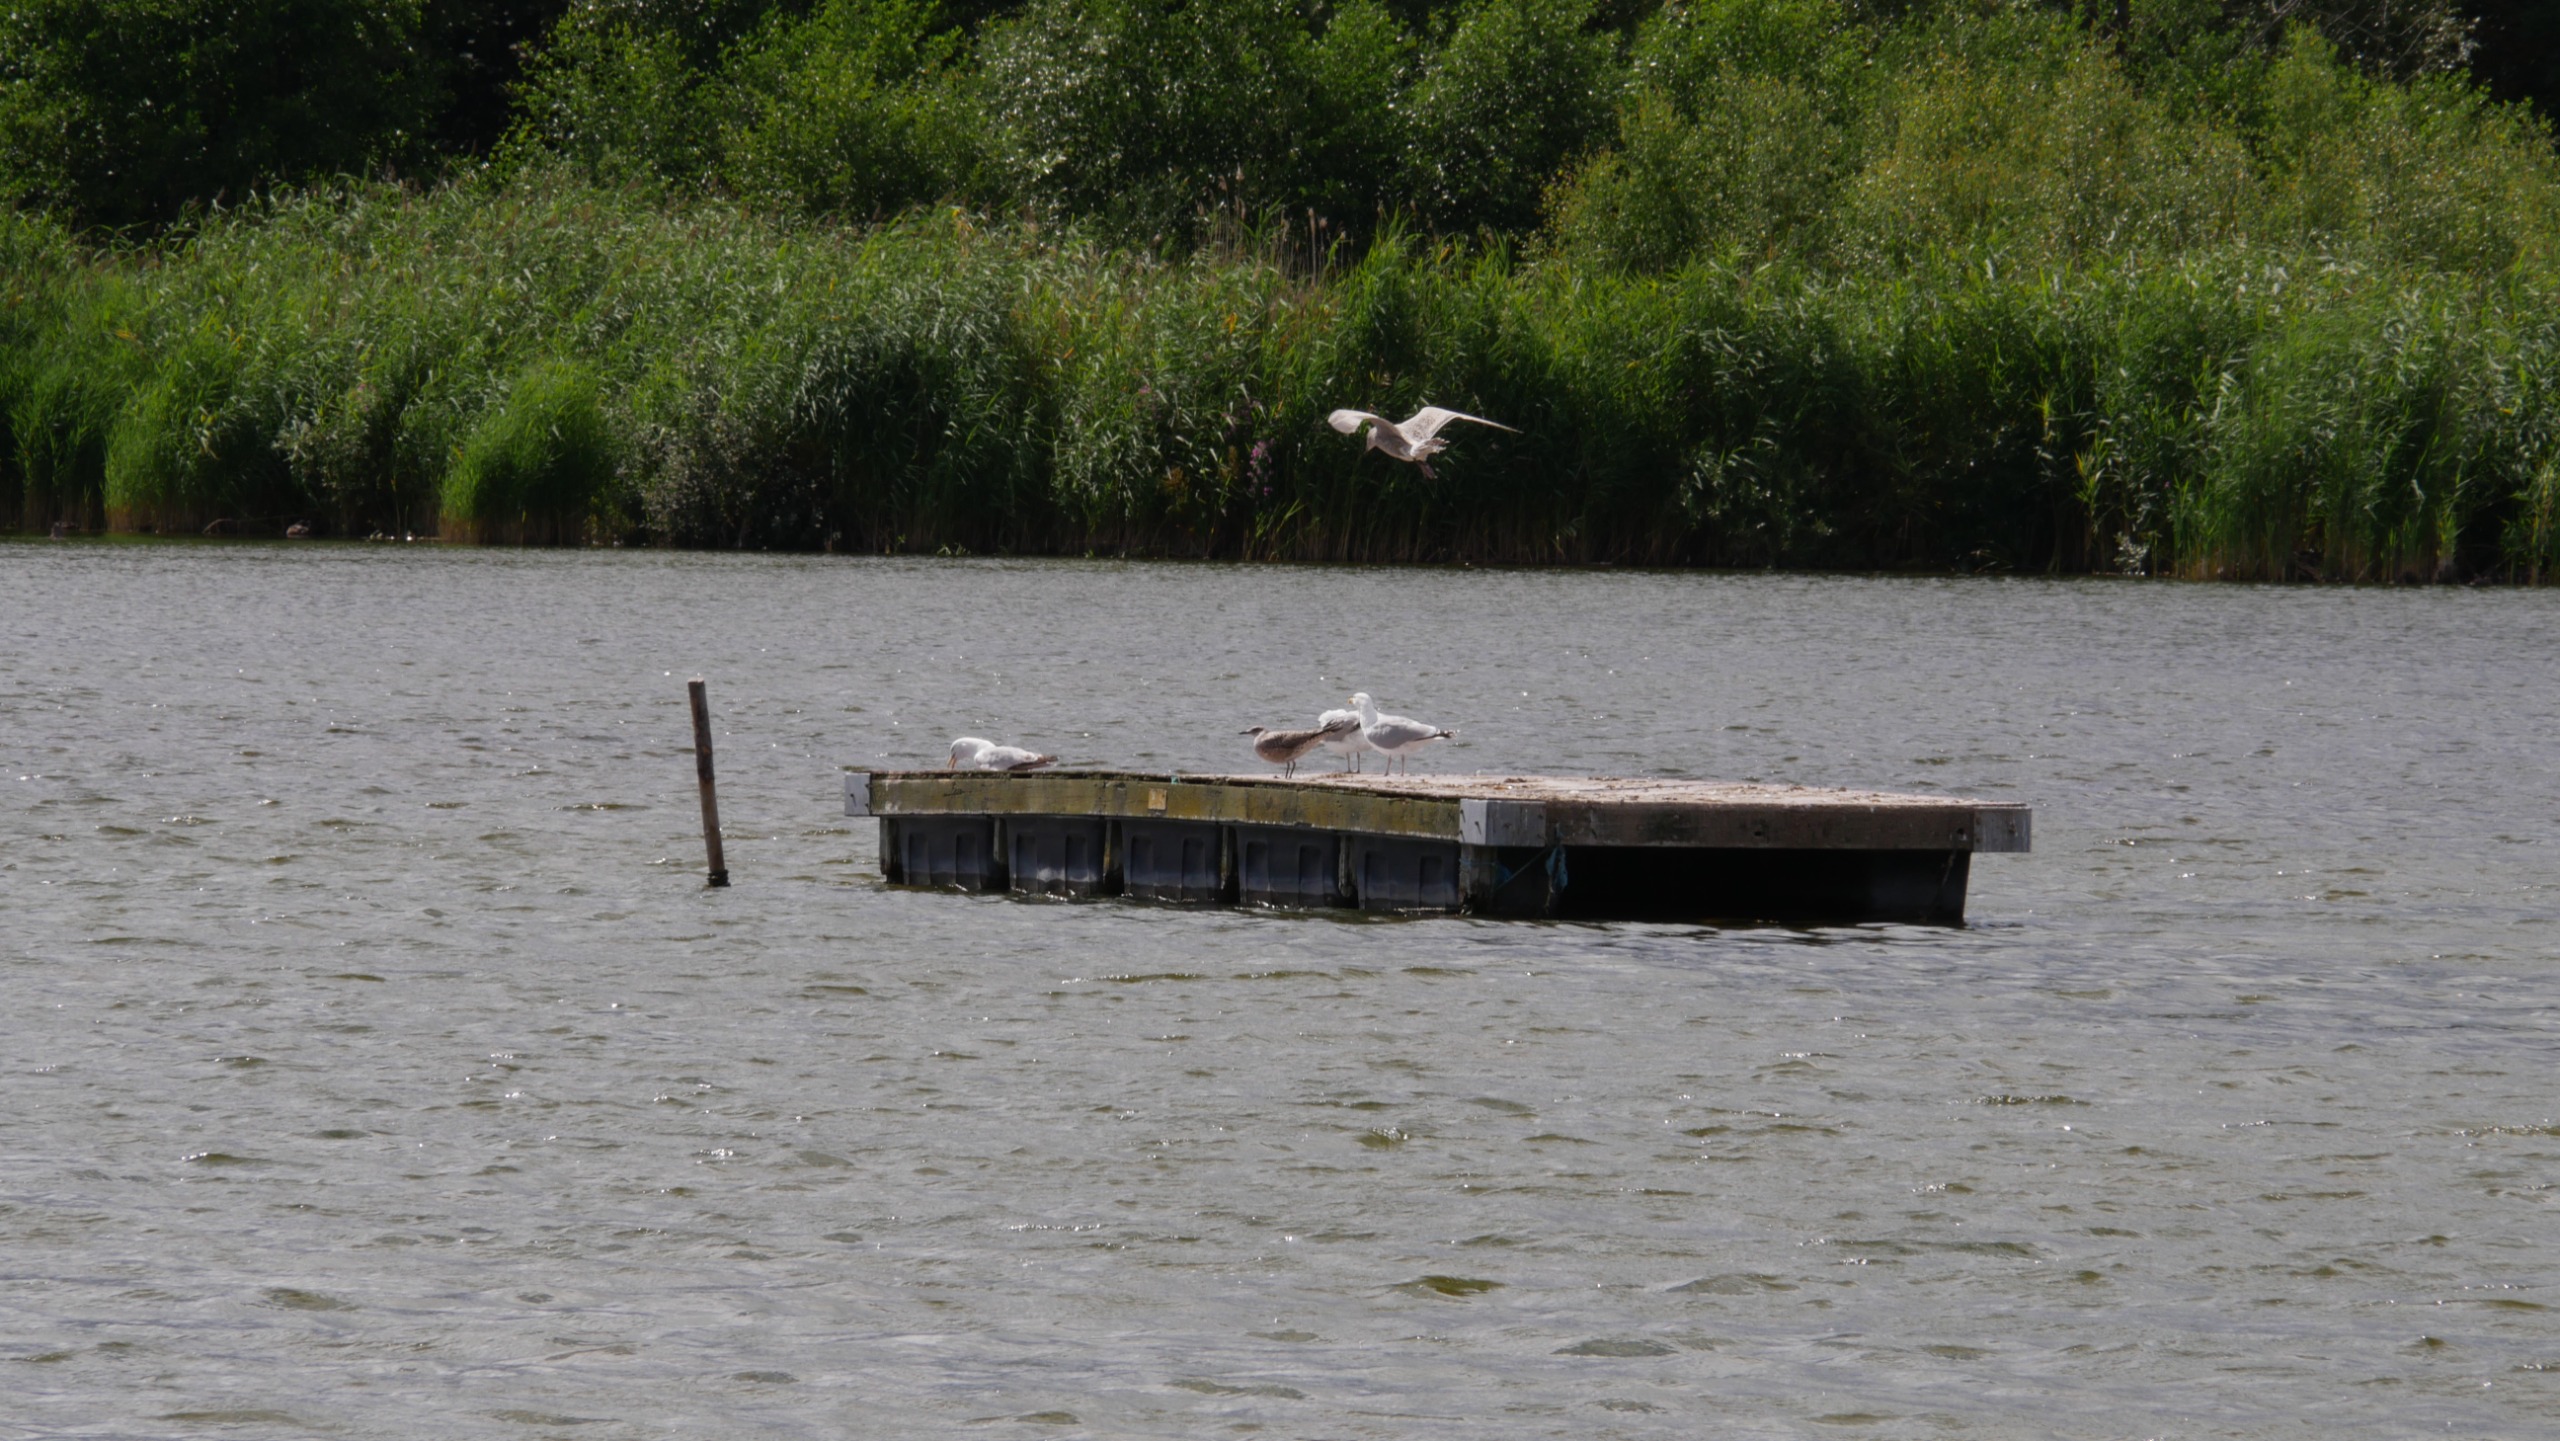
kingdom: Animalia
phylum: Chordata
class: Aves
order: Charadriiformes
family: Laridae
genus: Larus
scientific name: Larus argentatus
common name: Sølvmåge
